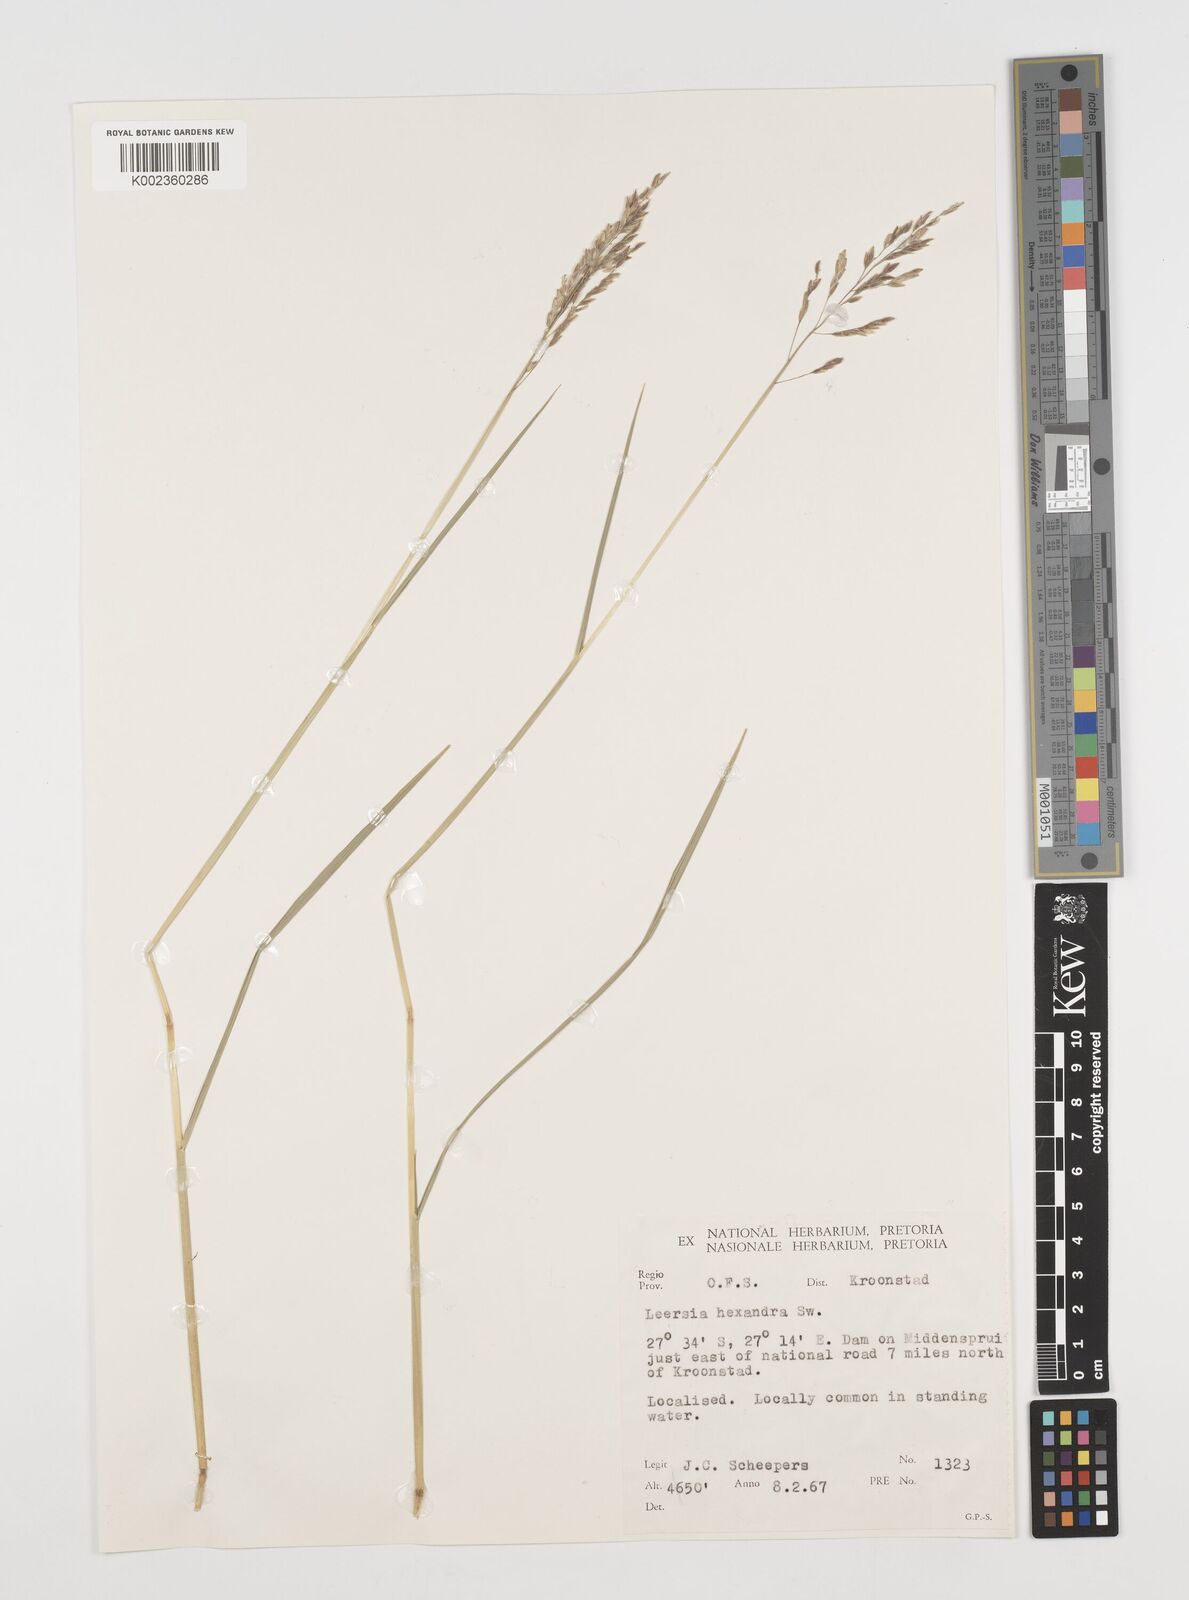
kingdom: Plantae
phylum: Tracheophyta
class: Liliopsida
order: Poales
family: Poaceae
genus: Leersia
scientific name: Leersia hexandra
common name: Southern cut grass
